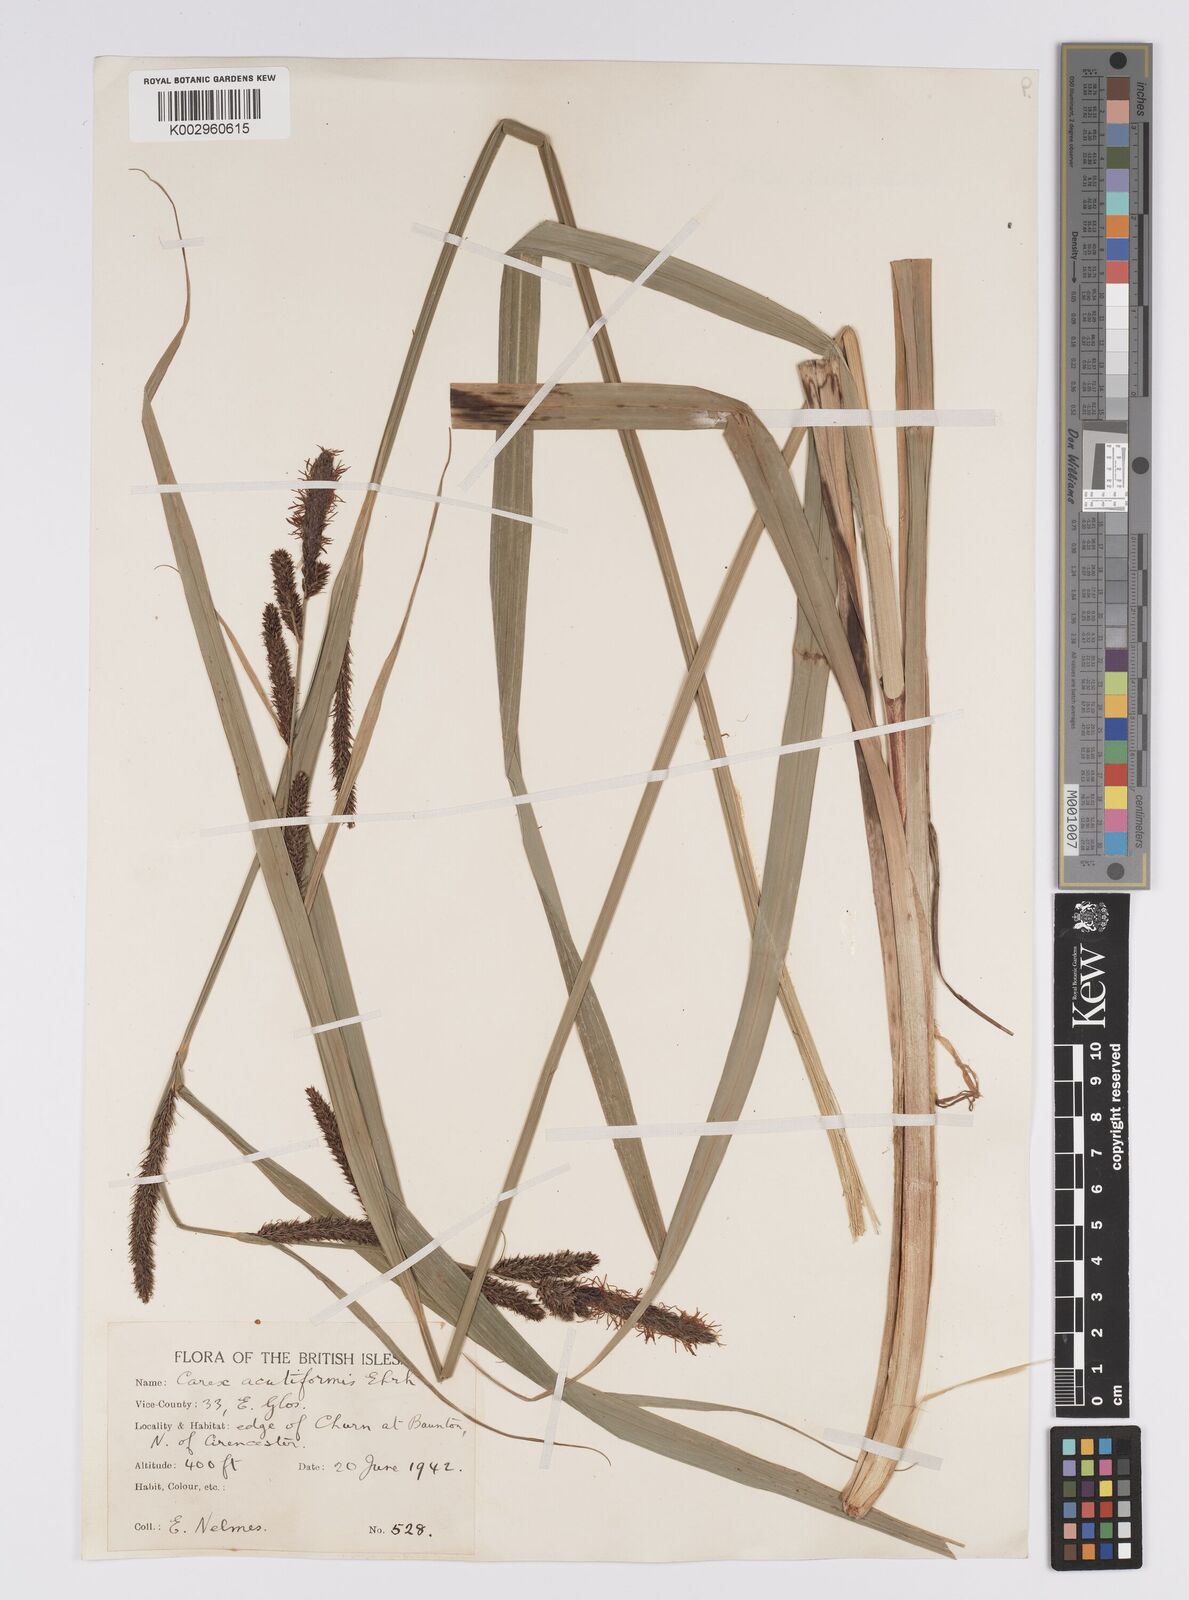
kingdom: Plantae
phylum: Tracheophyta
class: Liliopsida
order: Poales
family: Cyperaceae
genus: Carex
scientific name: Carex acutiformis
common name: Lesser pond-sedge
